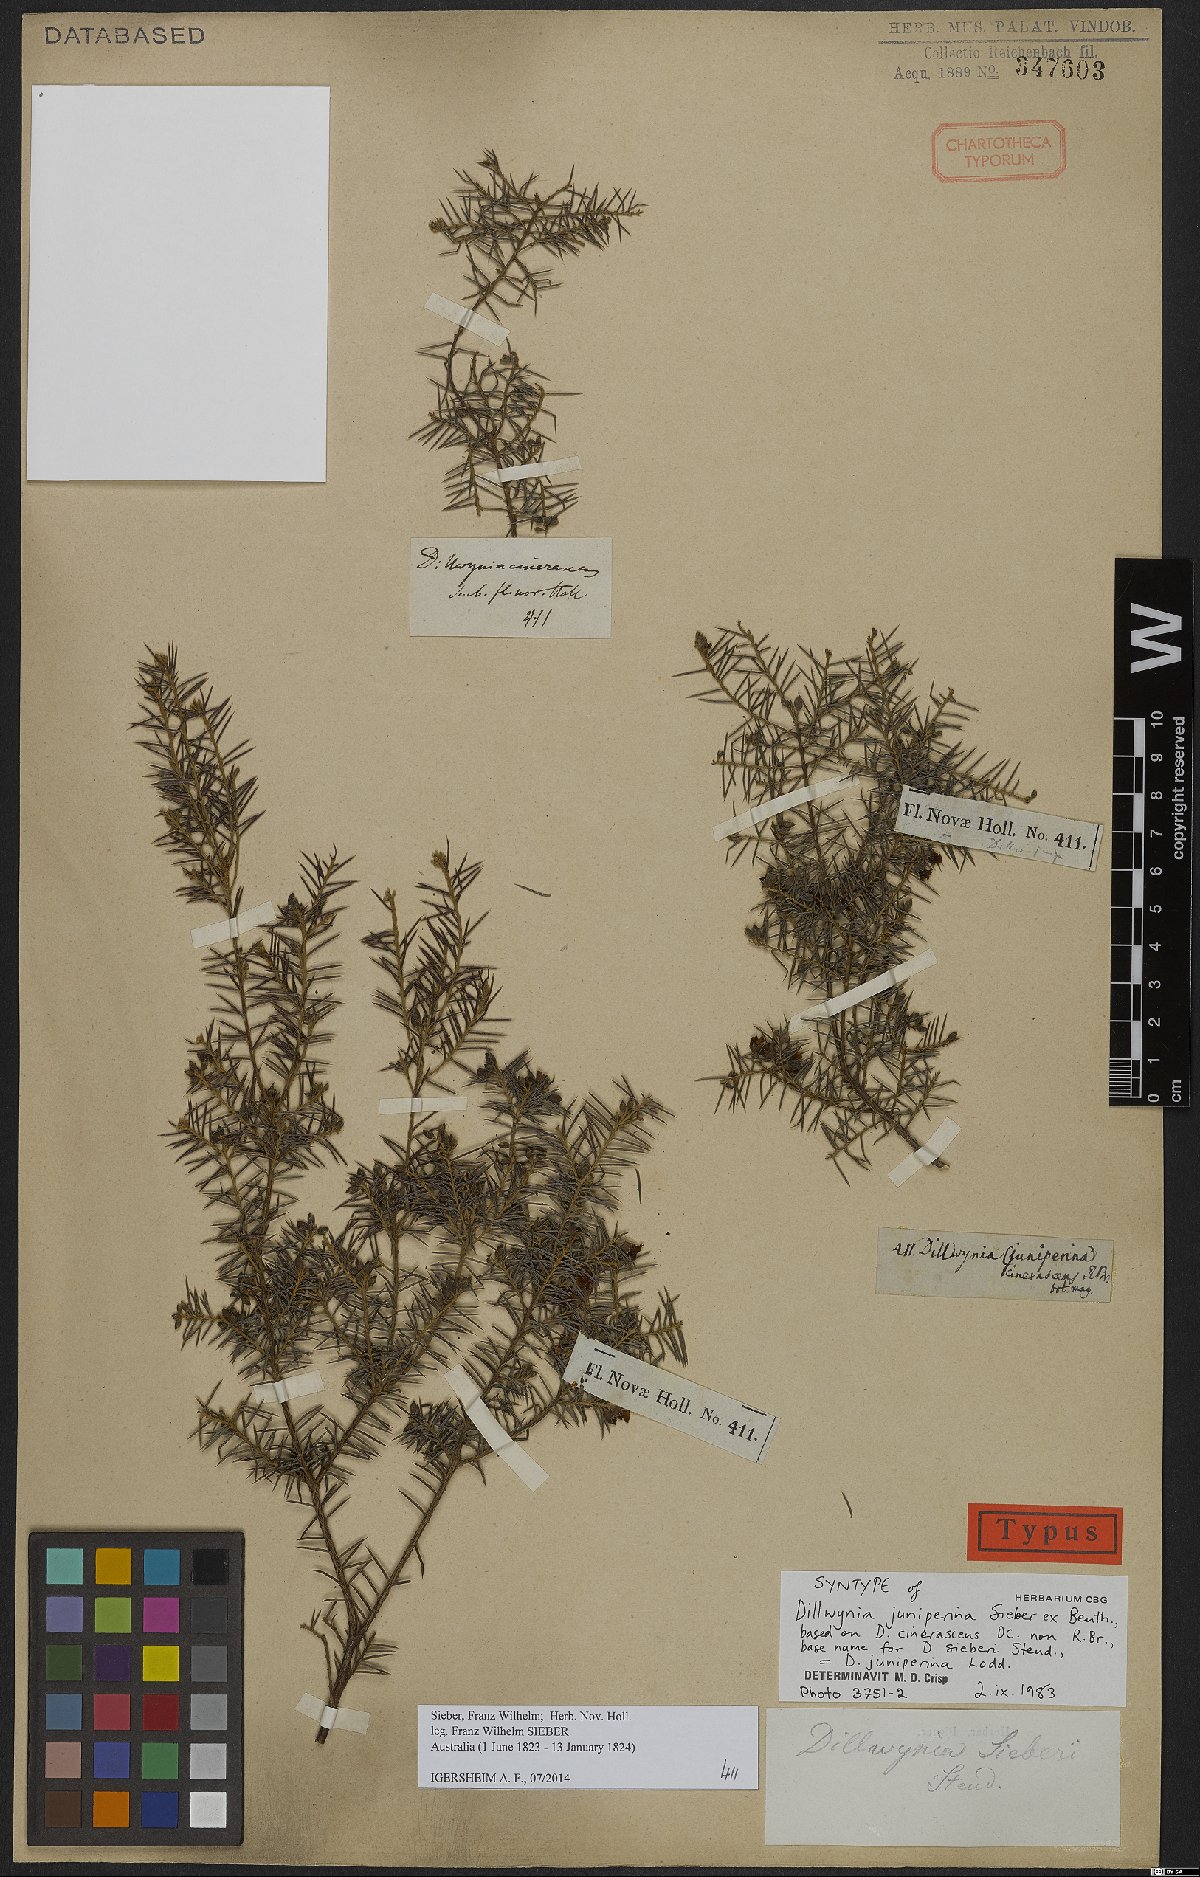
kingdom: Plantae
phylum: Tracheophyta
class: Magnoliopsida
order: Fabales
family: Fabaceae
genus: Dillwynia
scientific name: Dillwynia juniperina
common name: Prickly parrot pea
